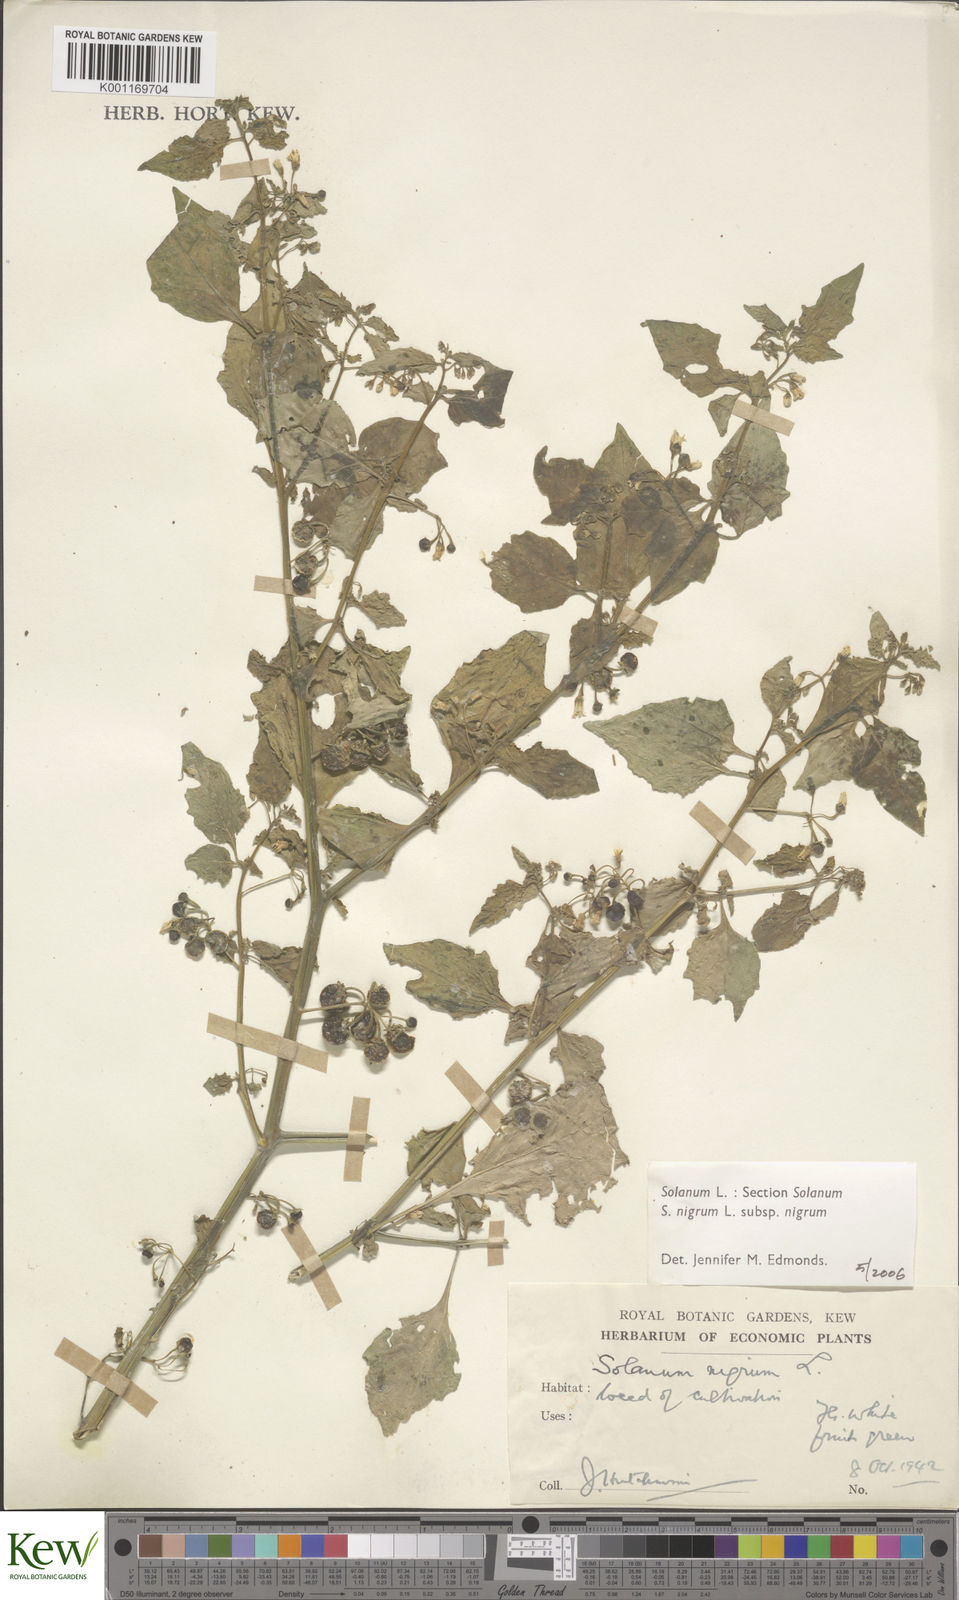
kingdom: Plantae
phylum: Tracheophyta
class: Magnoliopsida
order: Solanales
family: Solanaceae
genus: Solanum
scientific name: Solanum nigrum
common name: Black nightshade
